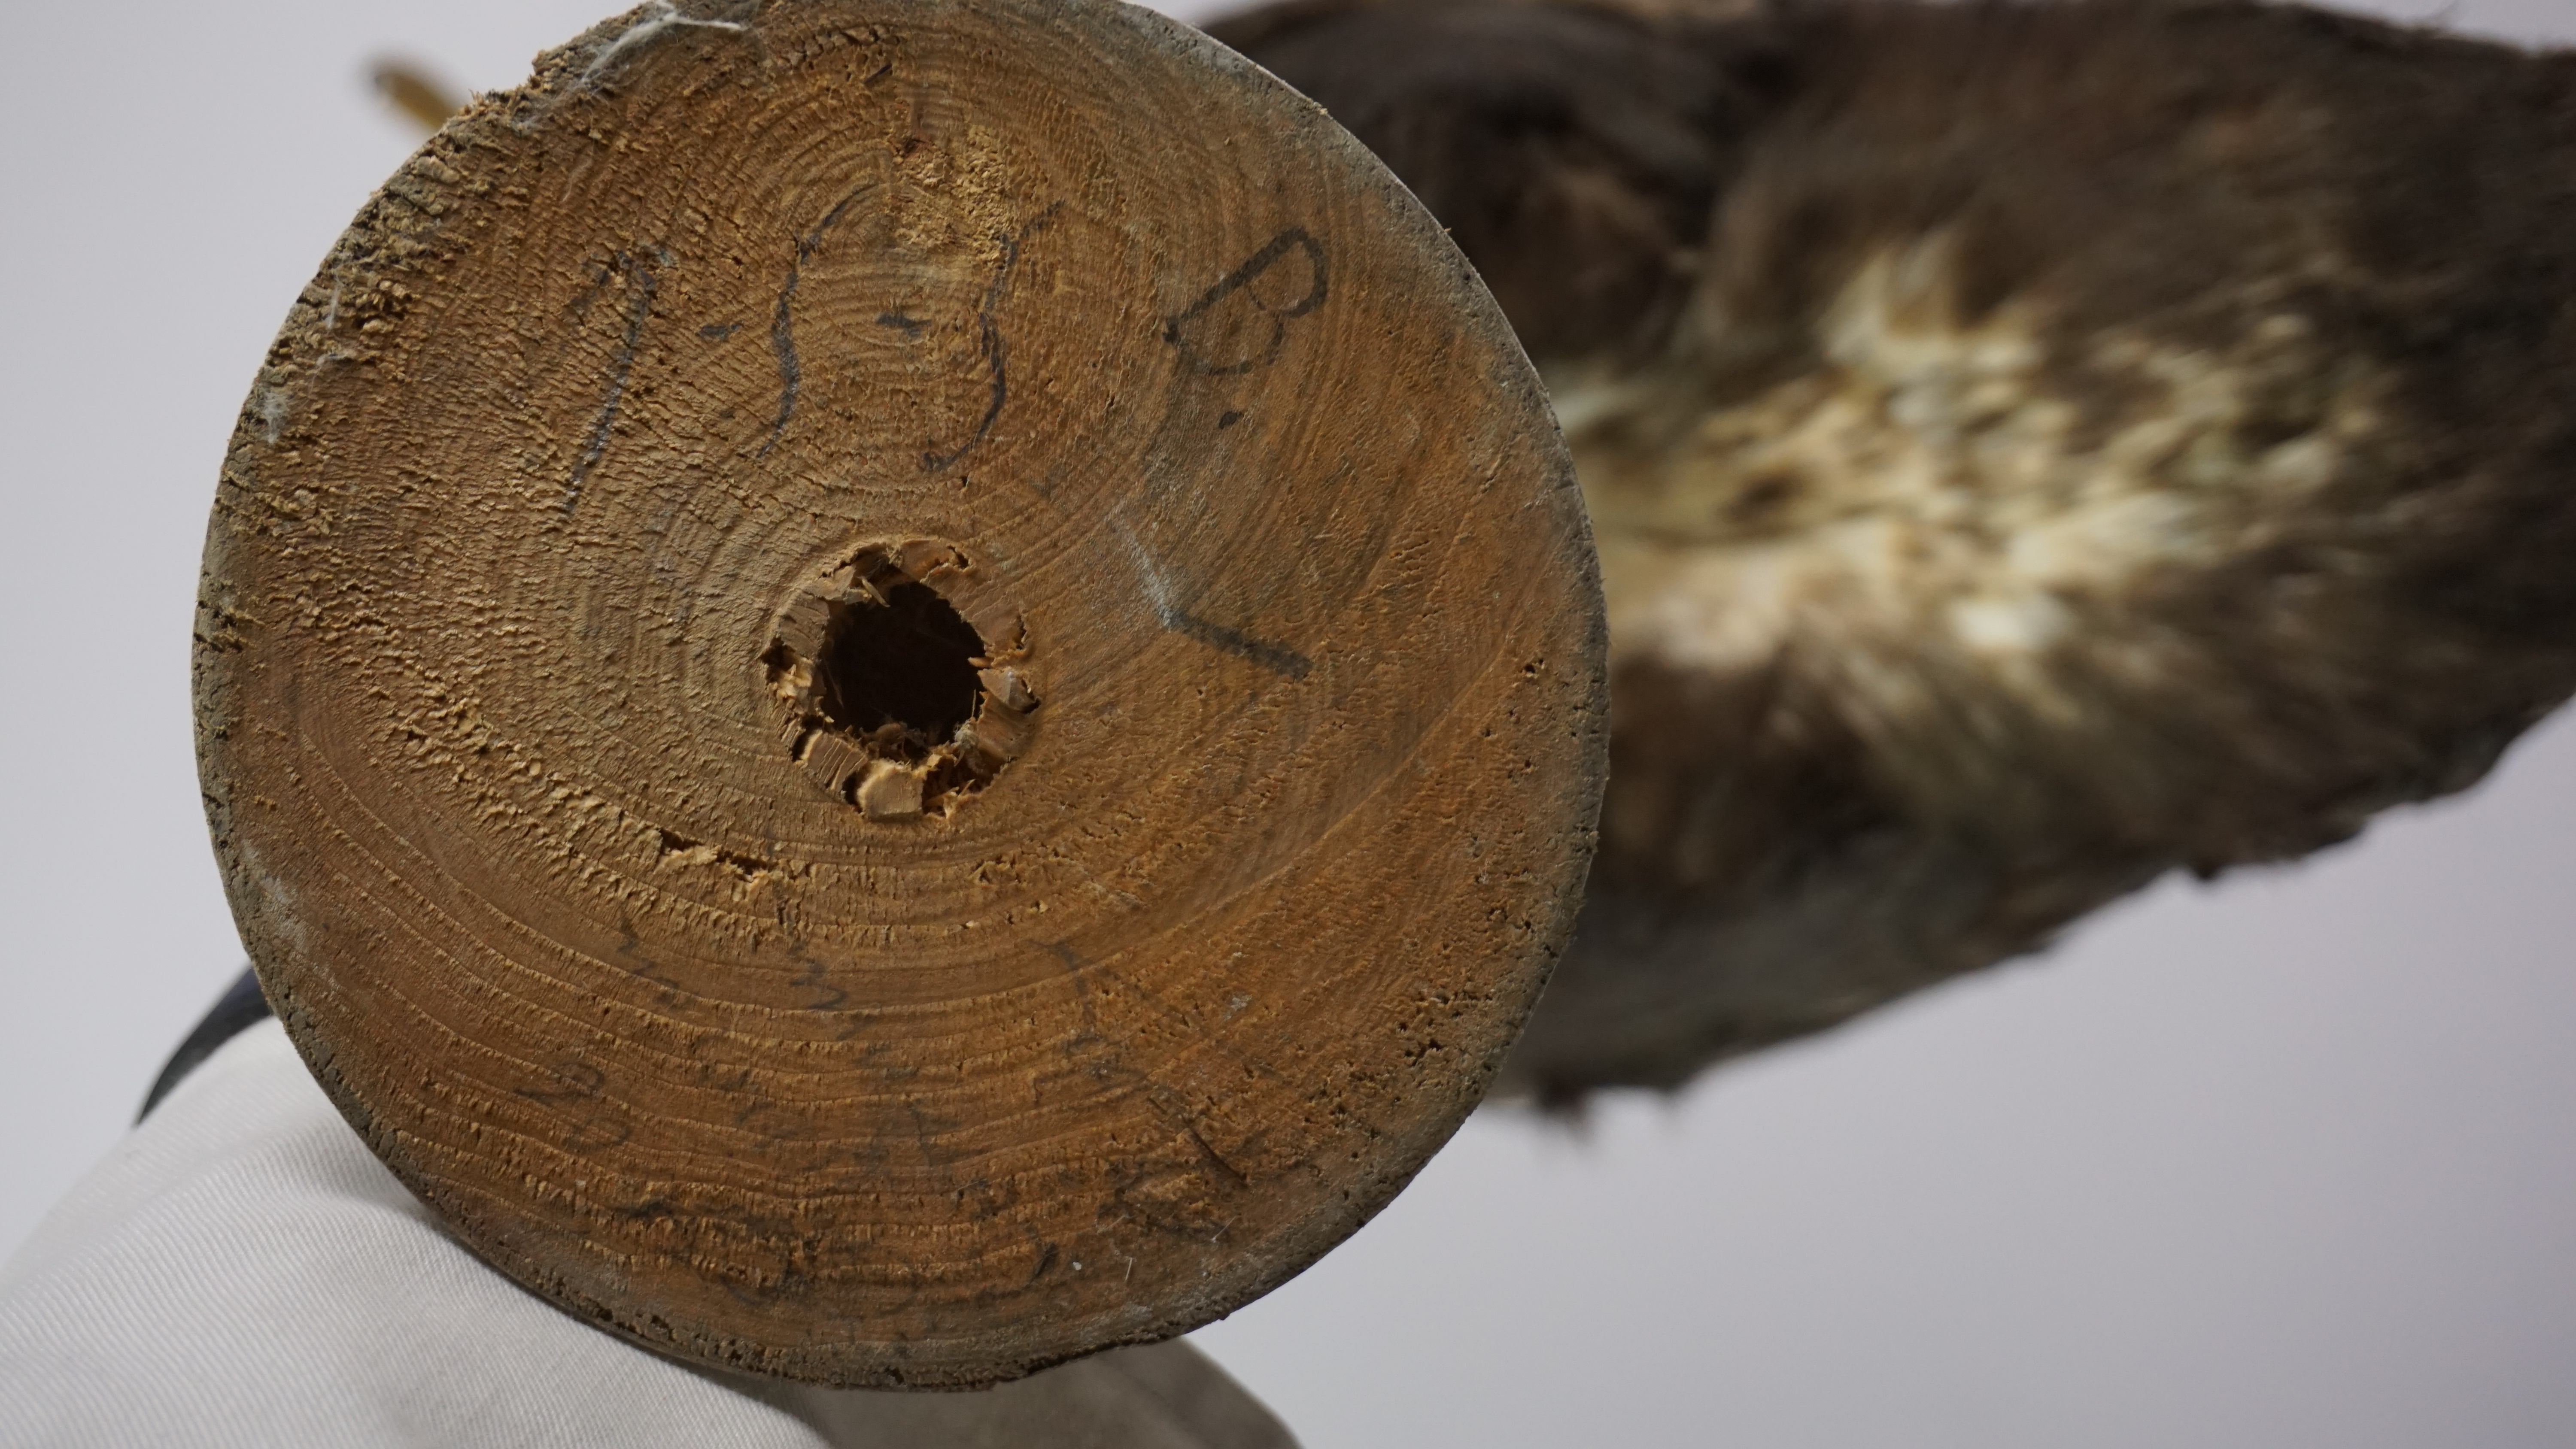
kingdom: Animalia
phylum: Chordata
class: Aves
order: Suliformes
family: Phalacrocoracidae
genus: Phalacrocorax
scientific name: Phalacrocorax carbo
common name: Great cormorant
